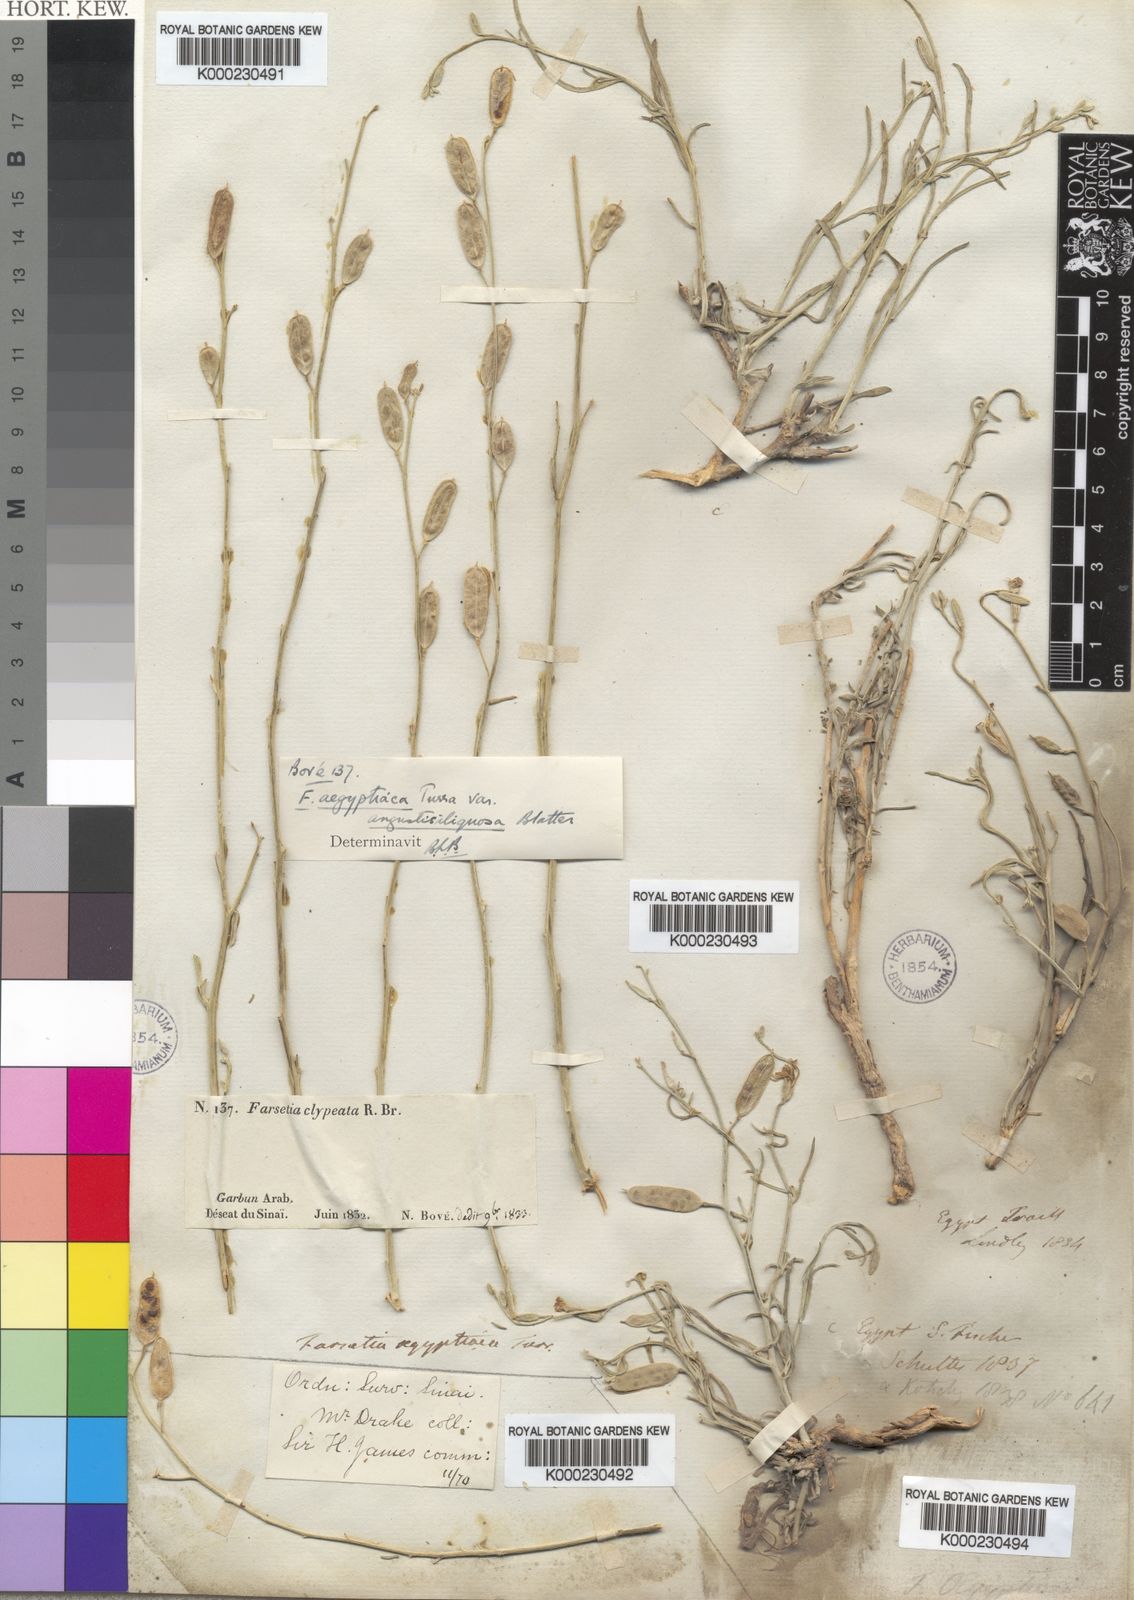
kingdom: Plantae
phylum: Tracheophyta
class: Magnoliopsida
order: Brassicales
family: Brassicaceae
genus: Farsetia
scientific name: Farsetia aegyptia
